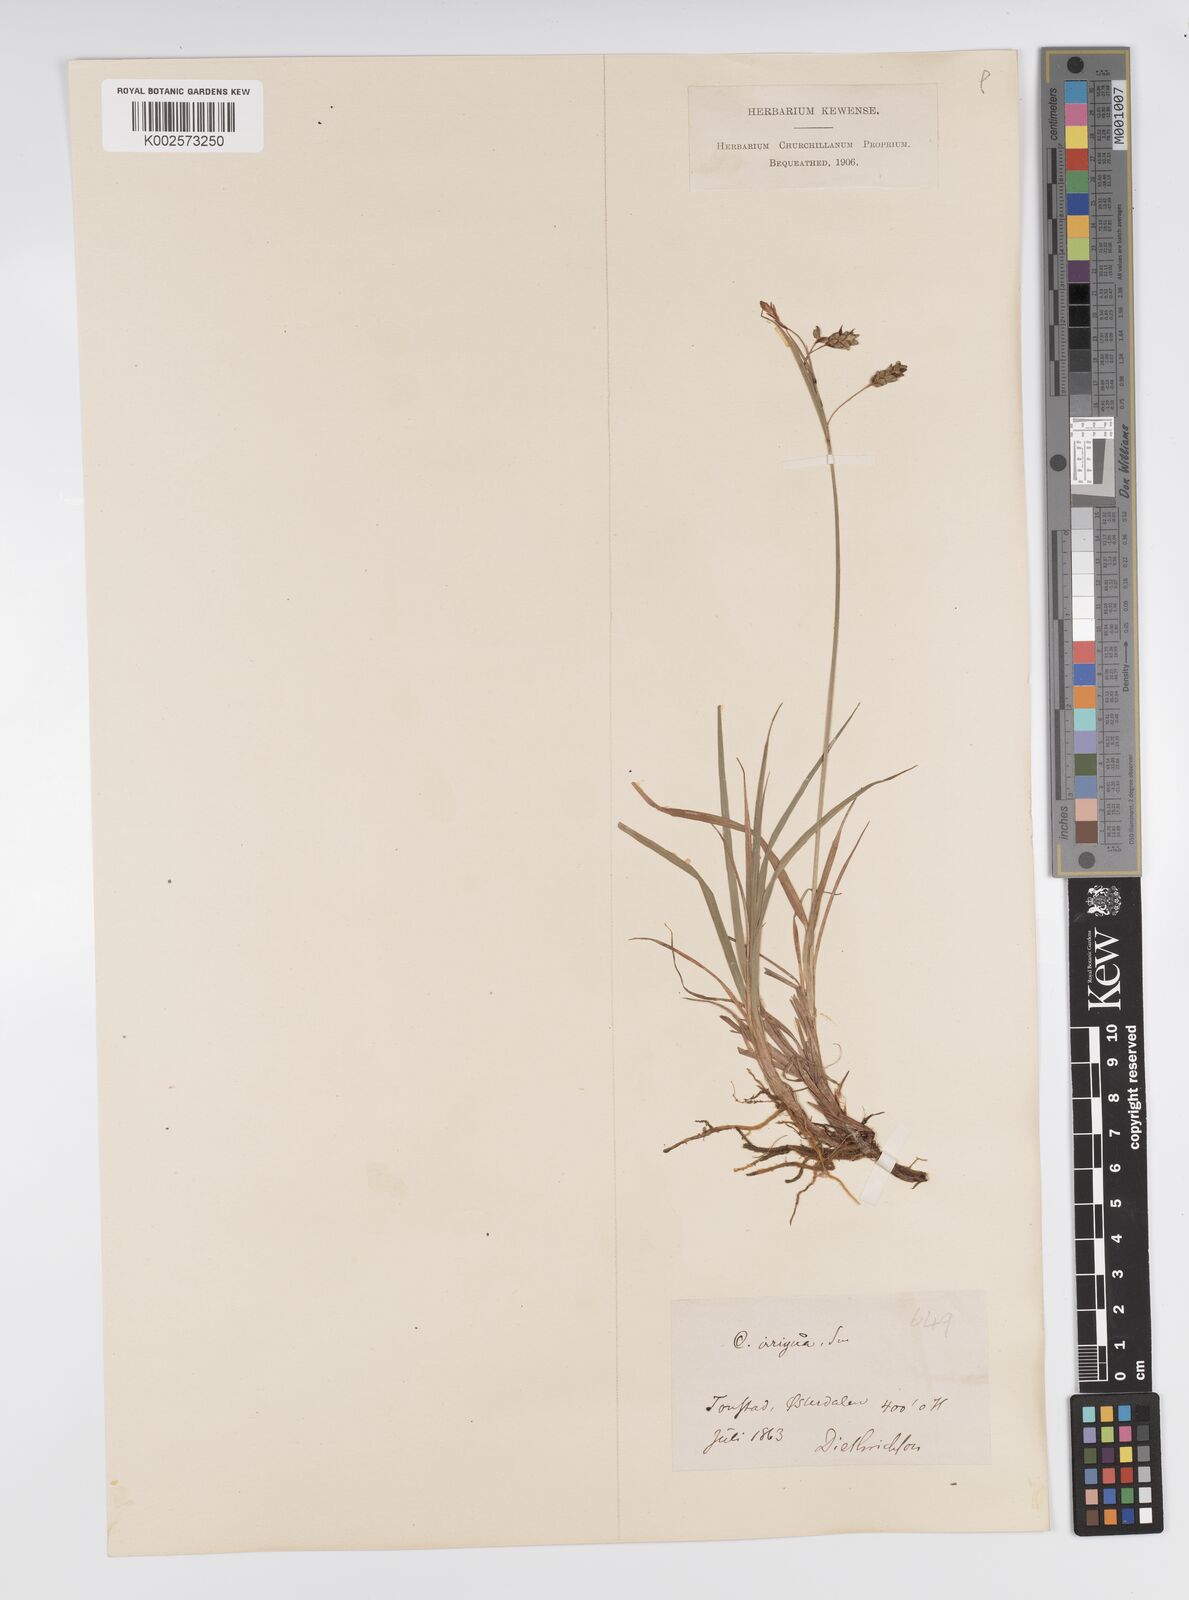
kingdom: Plantae
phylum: Tracheophyta
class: Liliopsida
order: Poales
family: Cyperaceae
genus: Carex
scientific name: Carex magellanica
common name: Bog sedge
